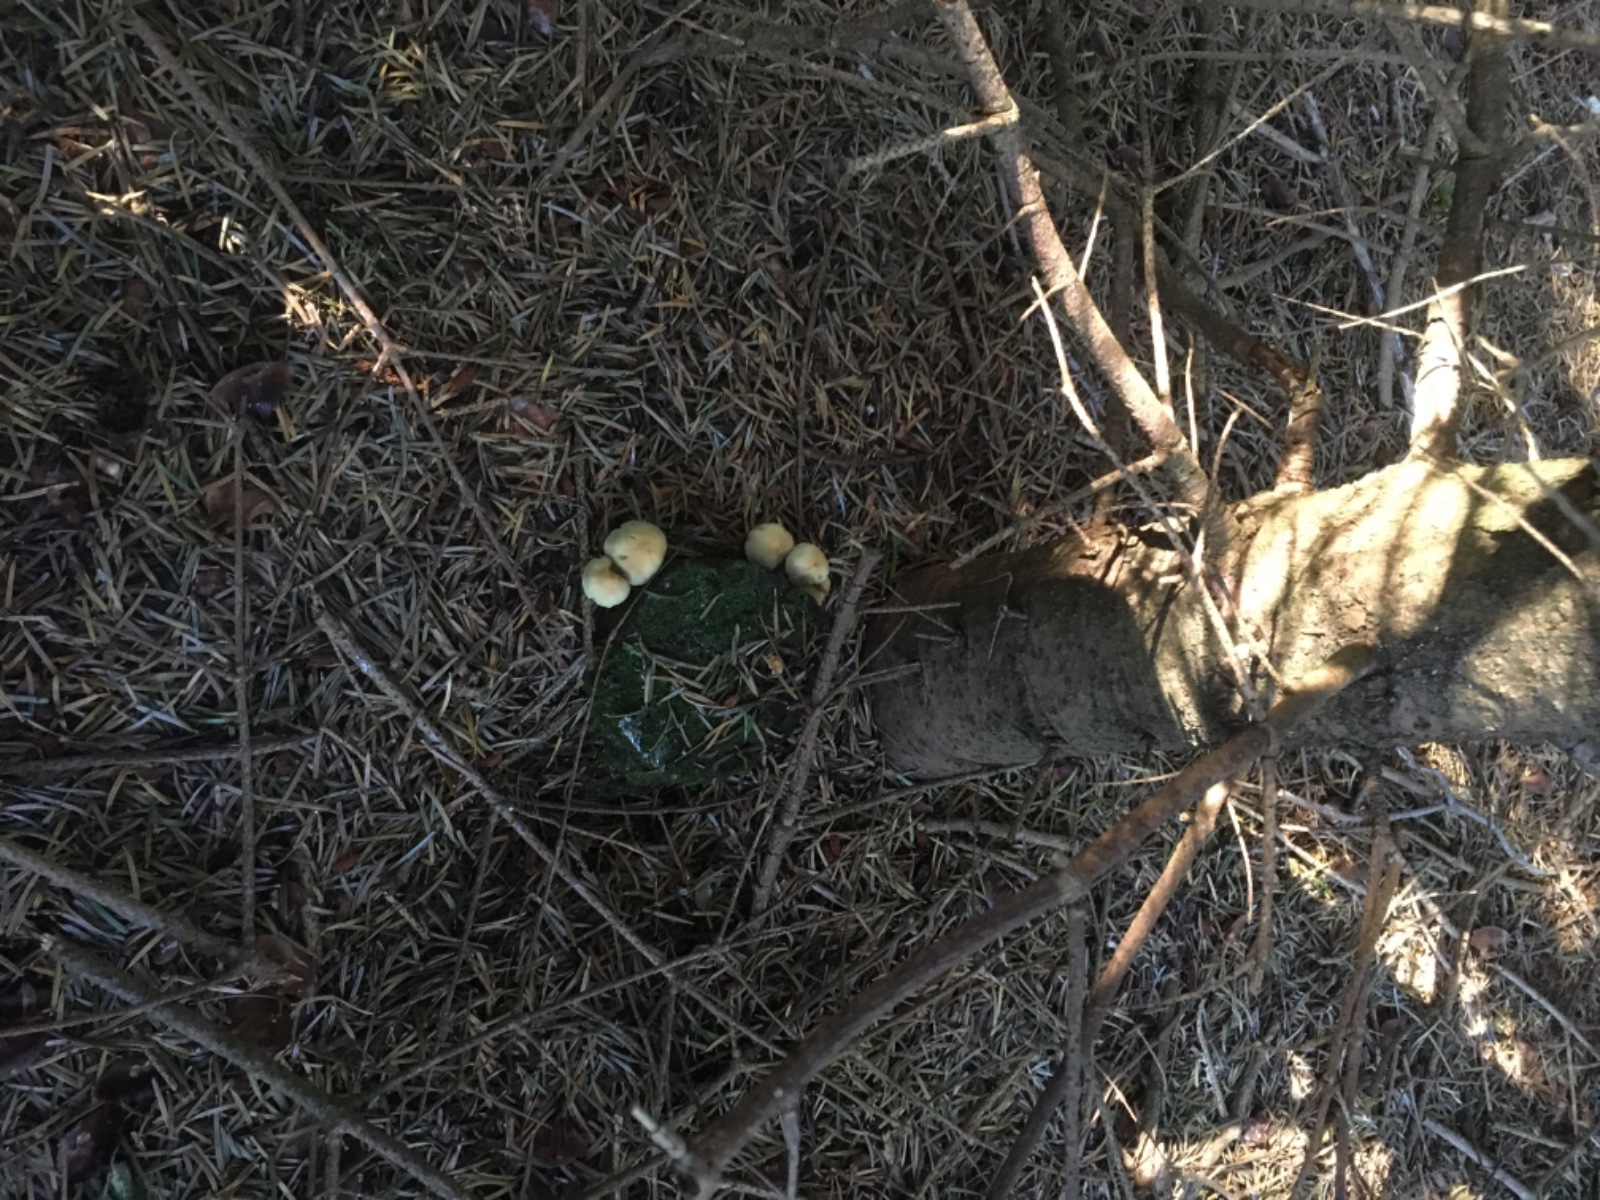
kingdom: Fungi
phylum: Basidiomycota
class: Agaricomycetes
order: Agaricales
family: Strophariaceae
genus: Hypholoma
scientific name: Hypholoma fasciculare
